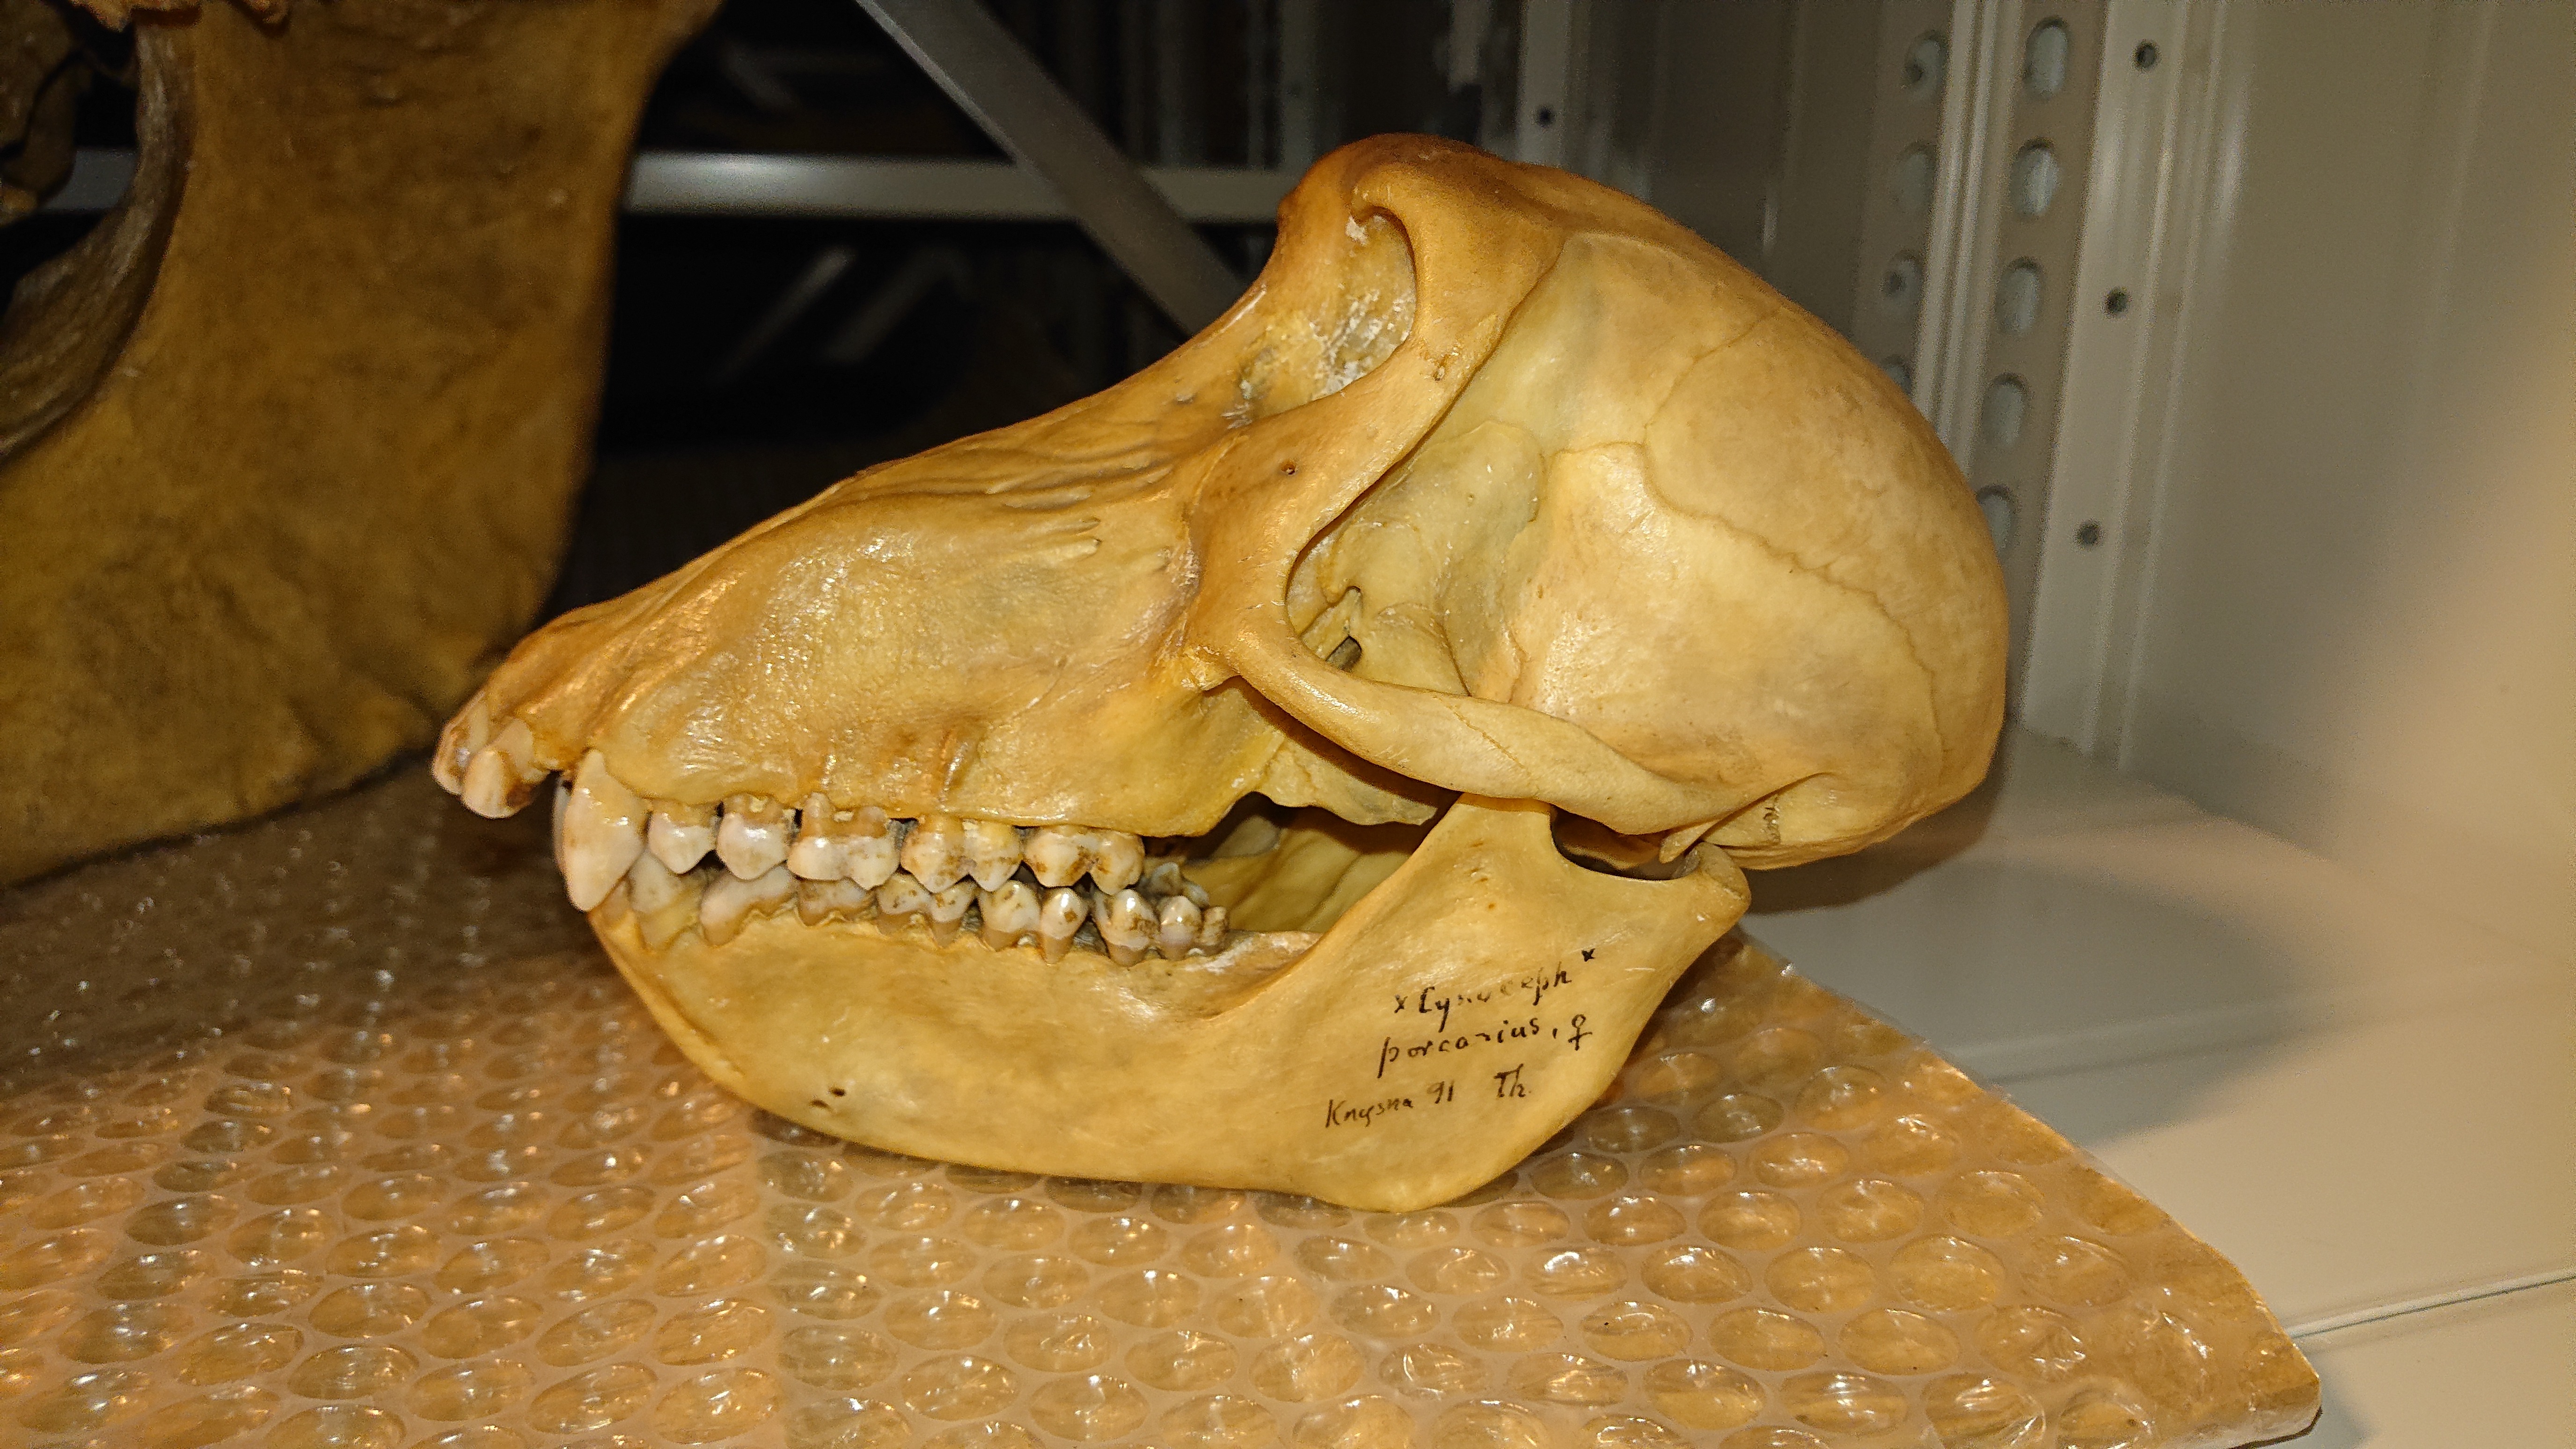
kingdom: Animalia
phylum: Chordata
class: Mammalia
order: Primates
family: Cercopithecidae
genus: Papio
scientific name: Papio ursinus
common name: Chacma baboon
